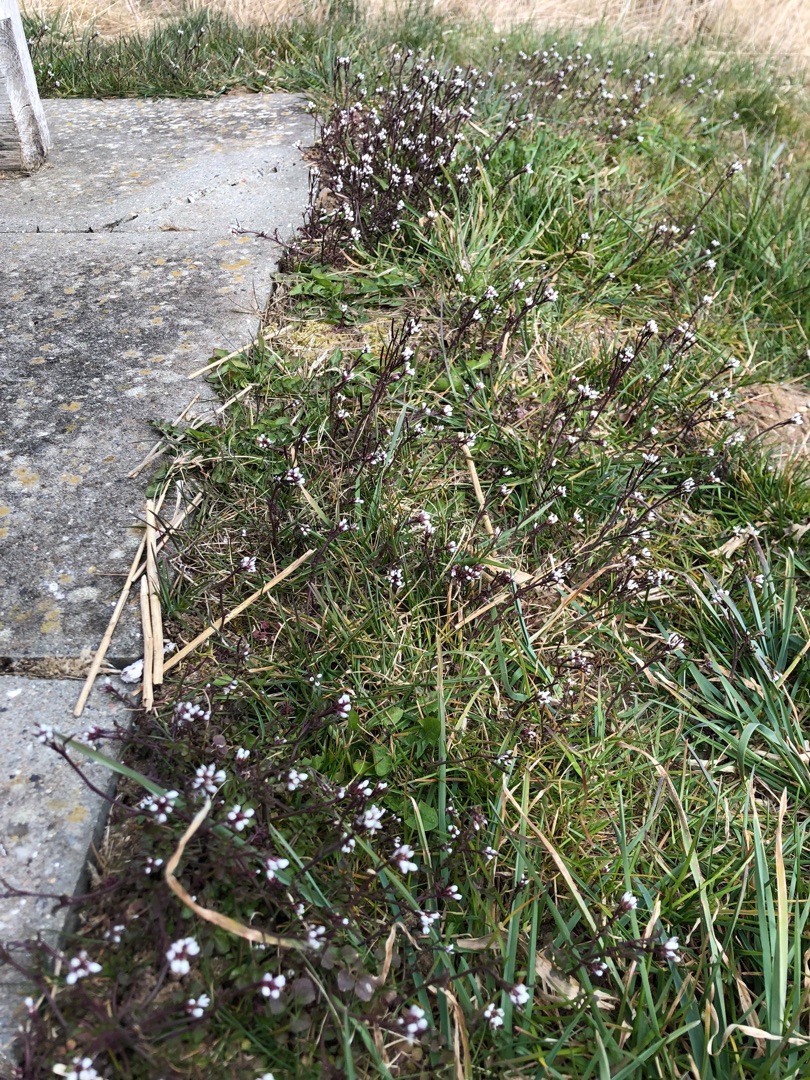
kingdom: Plantae
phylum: Tracheophyta
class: Magnoliopsida
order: Brassicales
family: Brassicaceae
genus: Cardamine
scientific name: Cardamine hirsuta
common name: Roset-springklap
